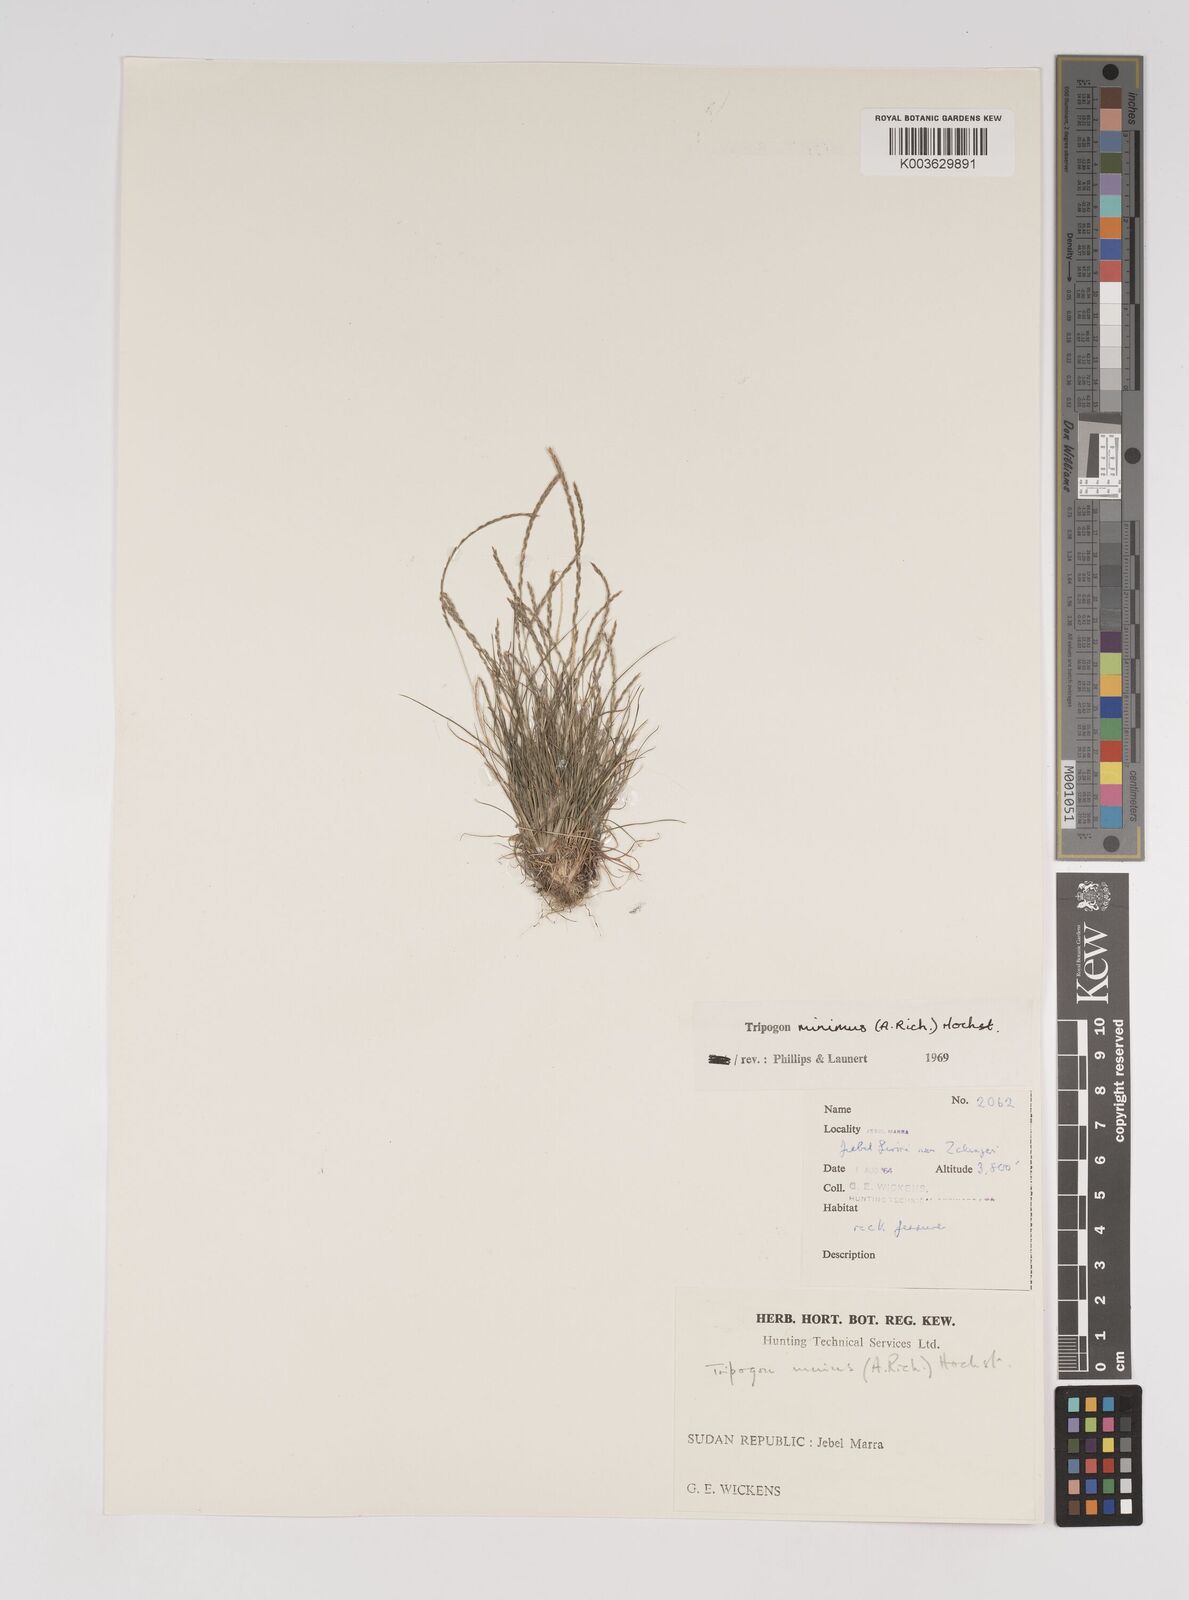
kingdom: Plantae
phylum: Tracheophyta
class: Liliopsida
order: Poales
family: Poaceae
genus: Tripogonella
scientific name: Tripogonella minima
